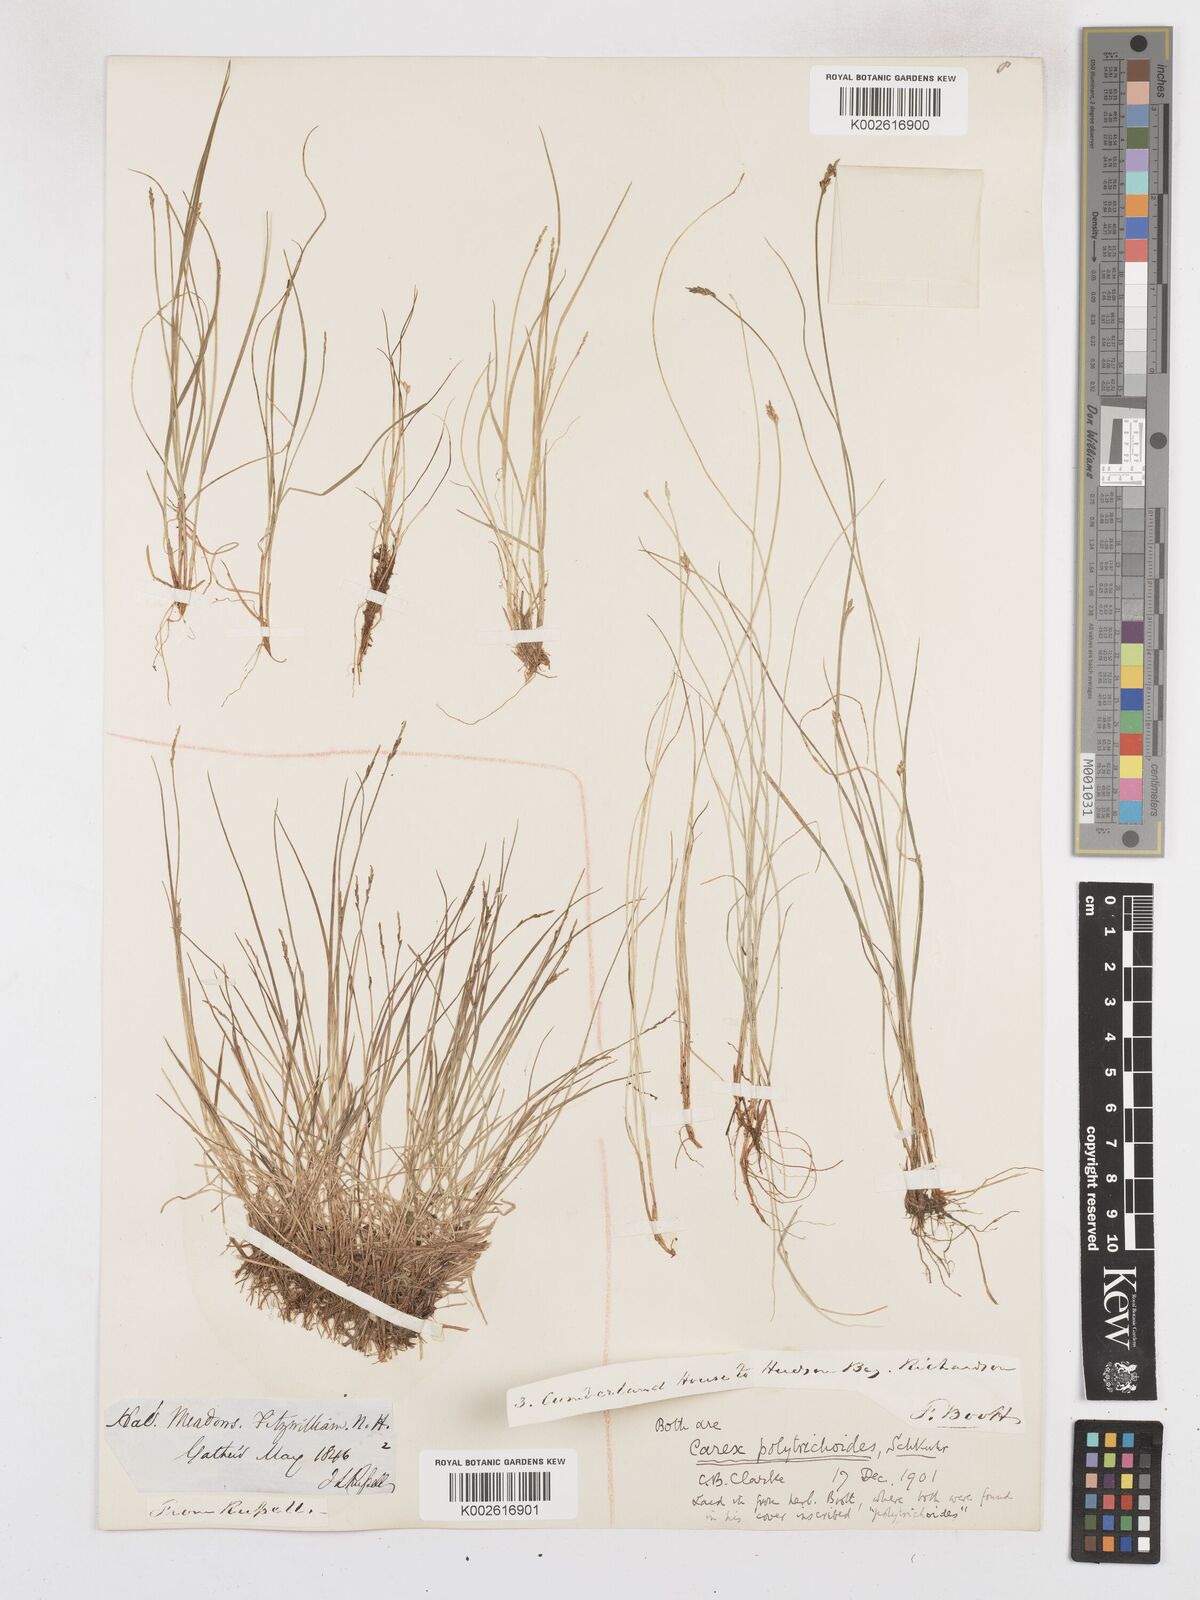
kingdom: Plantae
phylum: Tracheophyta
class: Liliopsida
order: Poales
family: Cyperaceae
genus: Carex
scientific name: Carex leptalea
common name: Bristly-stalked sedge
